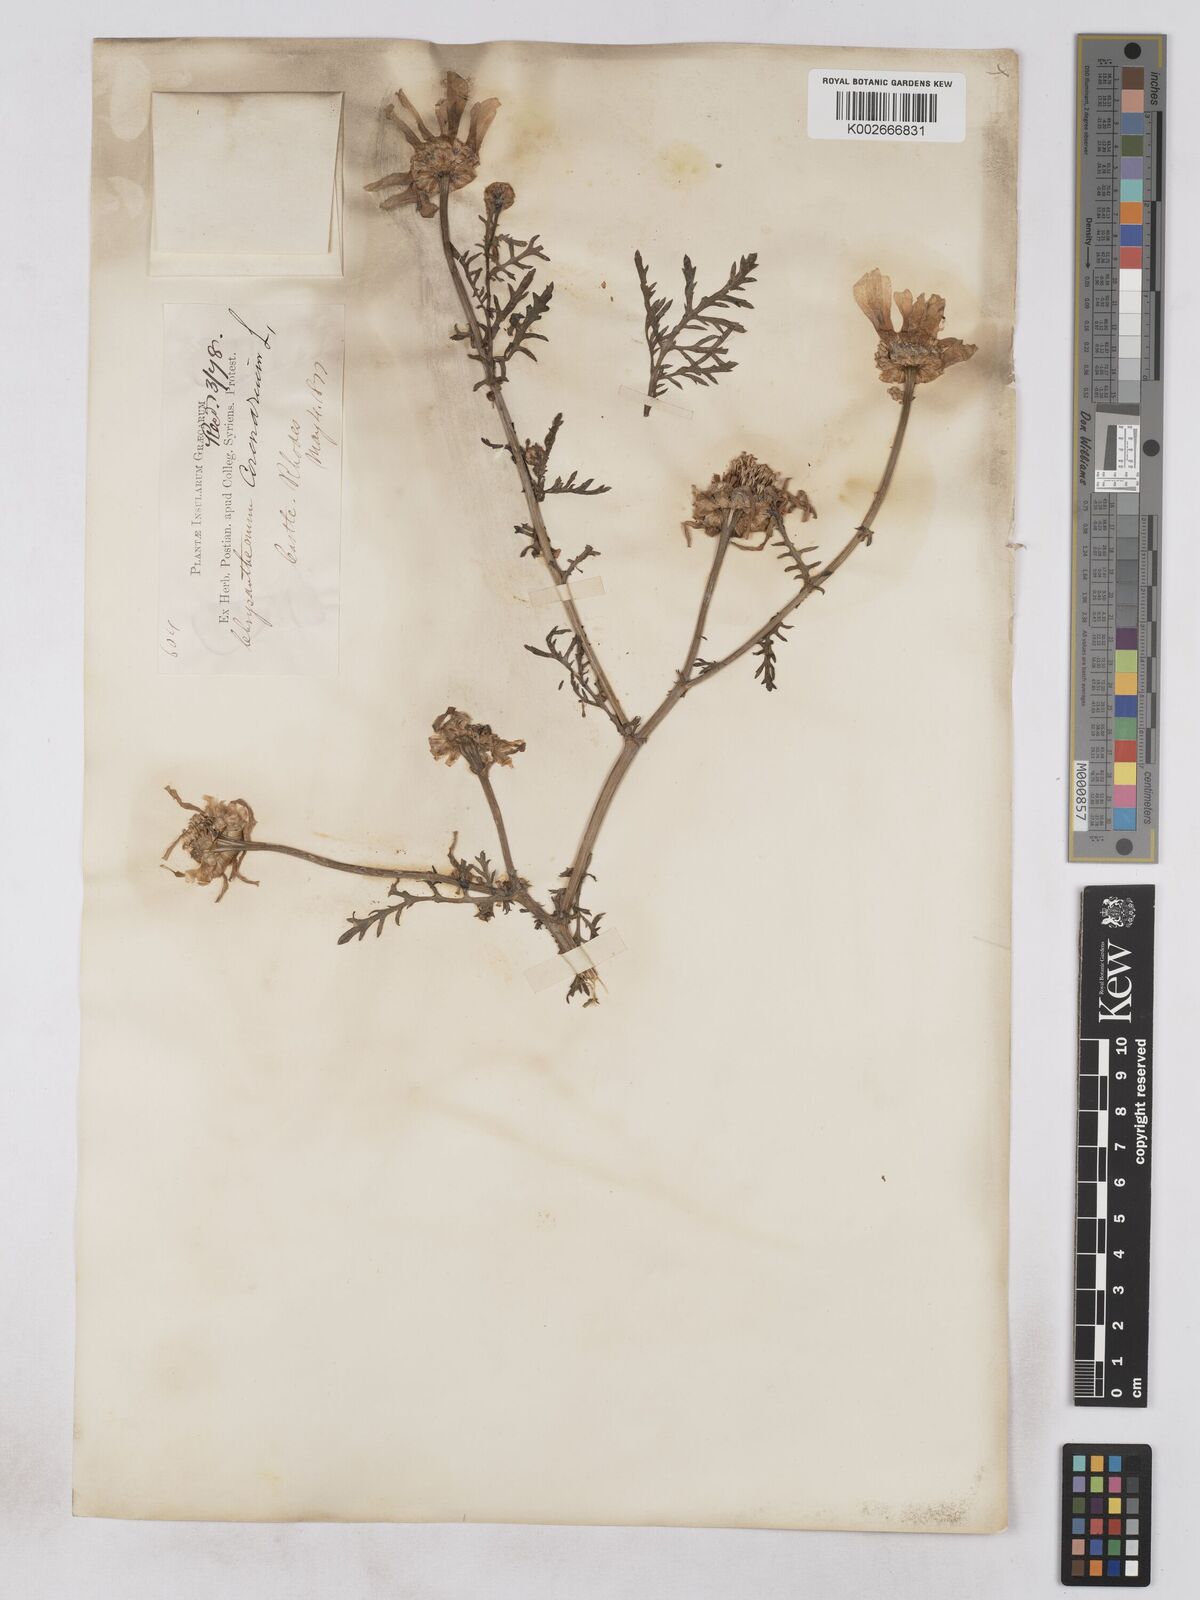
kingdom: Plantae
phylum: Tracheophyta
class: Magnoliopsida
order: Asterales
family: Asteraceae
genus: Glebionis
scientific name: Glebionis coronaria
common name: Crowndaisy
